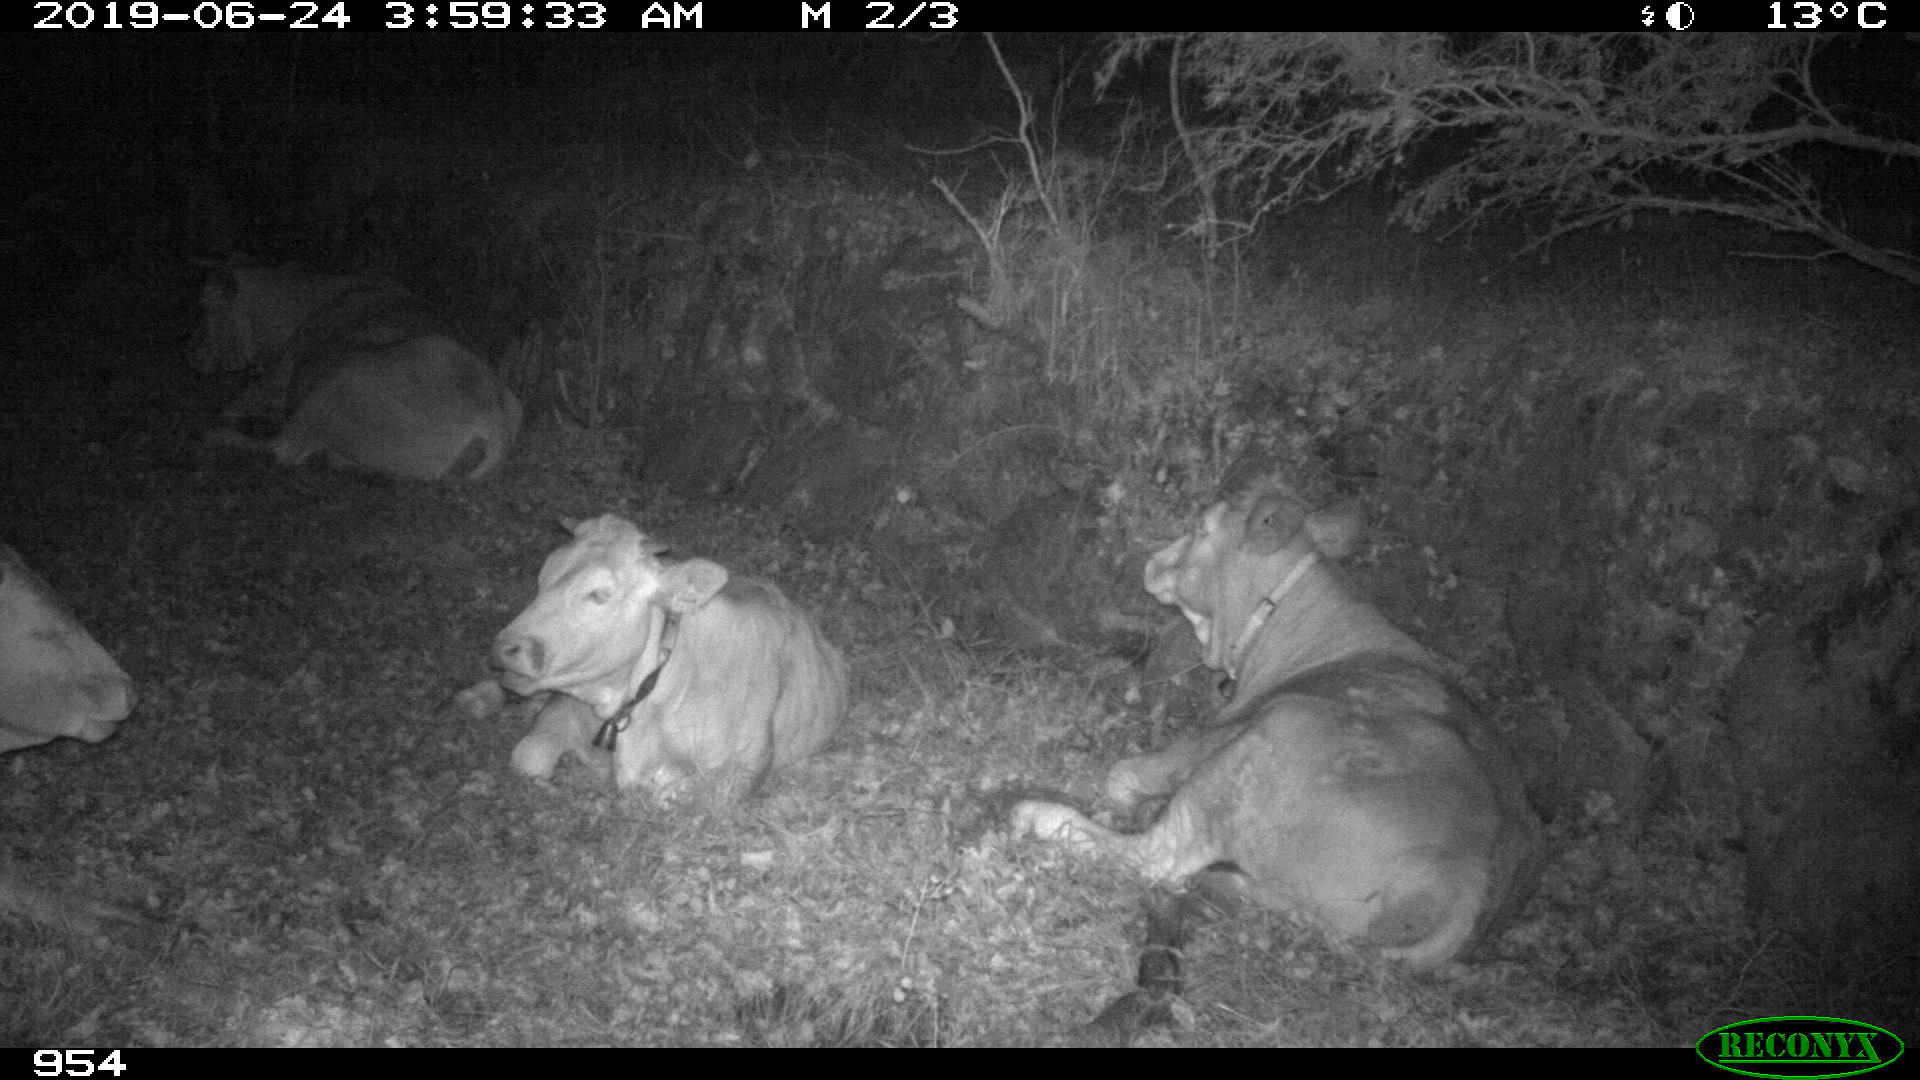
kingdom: Animalia
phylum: Chordata
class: Mammalia
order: Artiodactyla
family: Bovidae
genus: Bos
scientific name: Bos taurus
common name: Domesticated cattle
